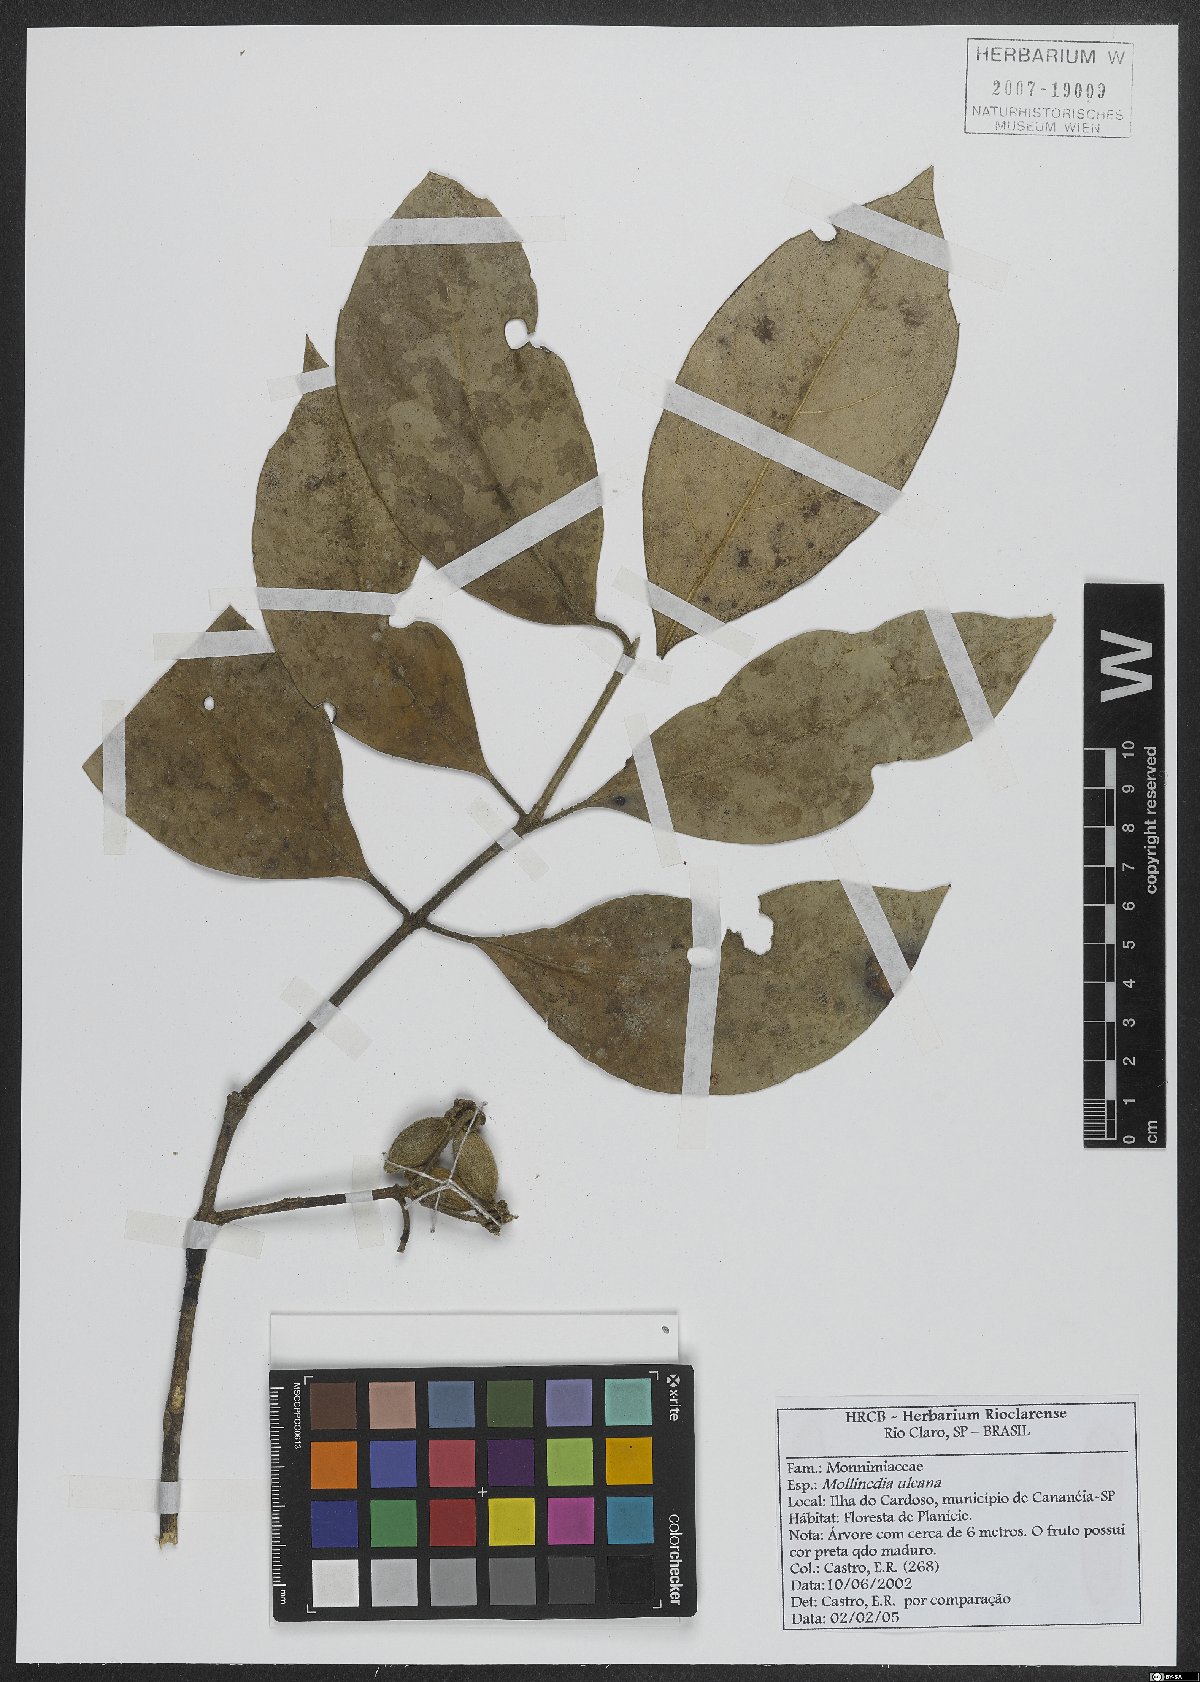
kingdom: Plantae
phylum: Tracheophyta
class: Magnoliopsida
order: Laurales
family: Monimiaceae
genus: Mollinedia
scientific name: Mollinedia uleana
